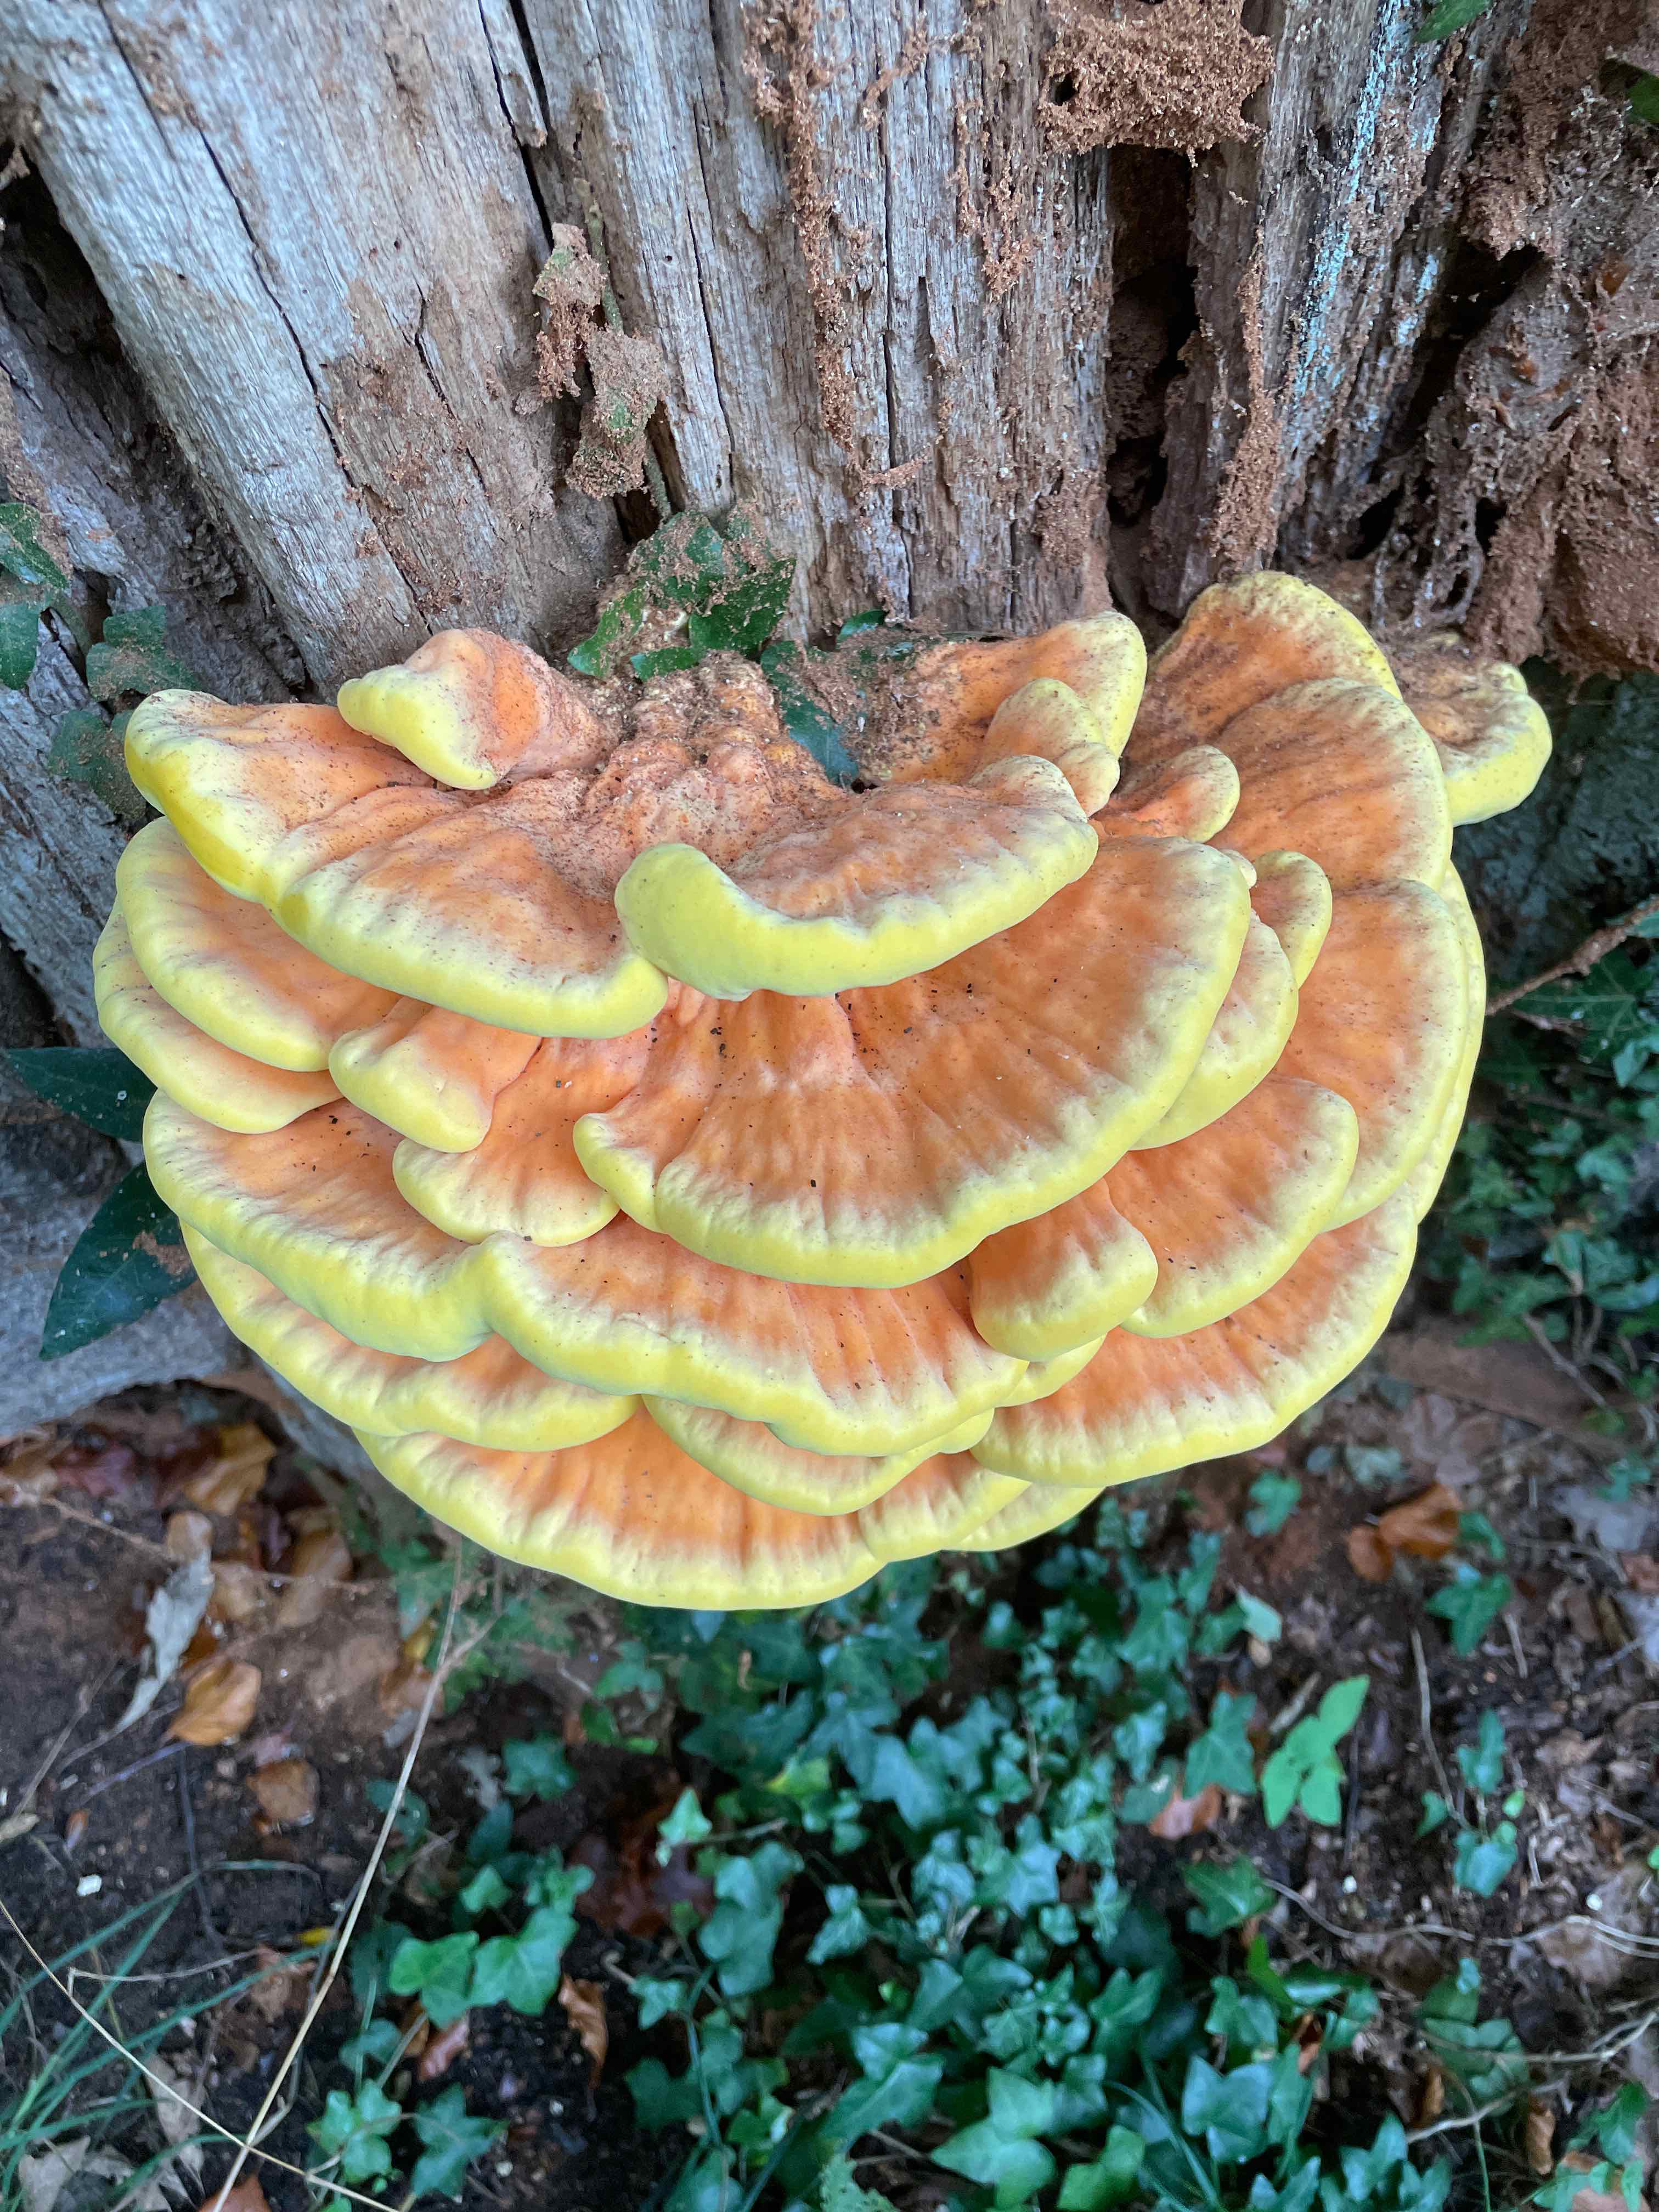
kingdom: Fungi
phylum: Basidiomycota
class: Agaricomycetes
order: Polyporales
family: Laetiporaceae
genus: Laetiporus
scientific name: Laetiporus sulphureus
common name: svovlporesvamp
